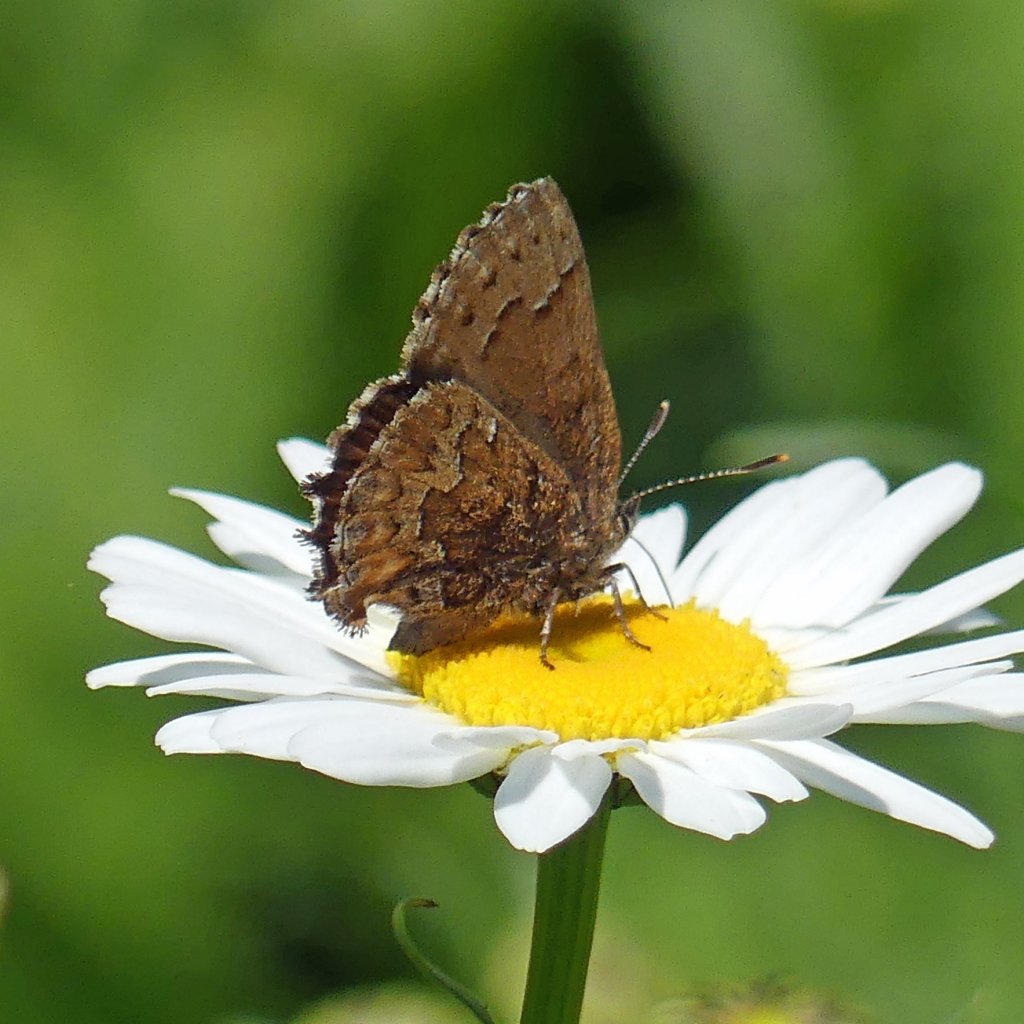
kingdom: Animalia
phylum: Arthropoda
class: Insecta
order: Lepidoptera
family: Lycaenidae
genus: Incisalia
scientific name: Incisalia niphon
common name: Eastern Pine Elfin
